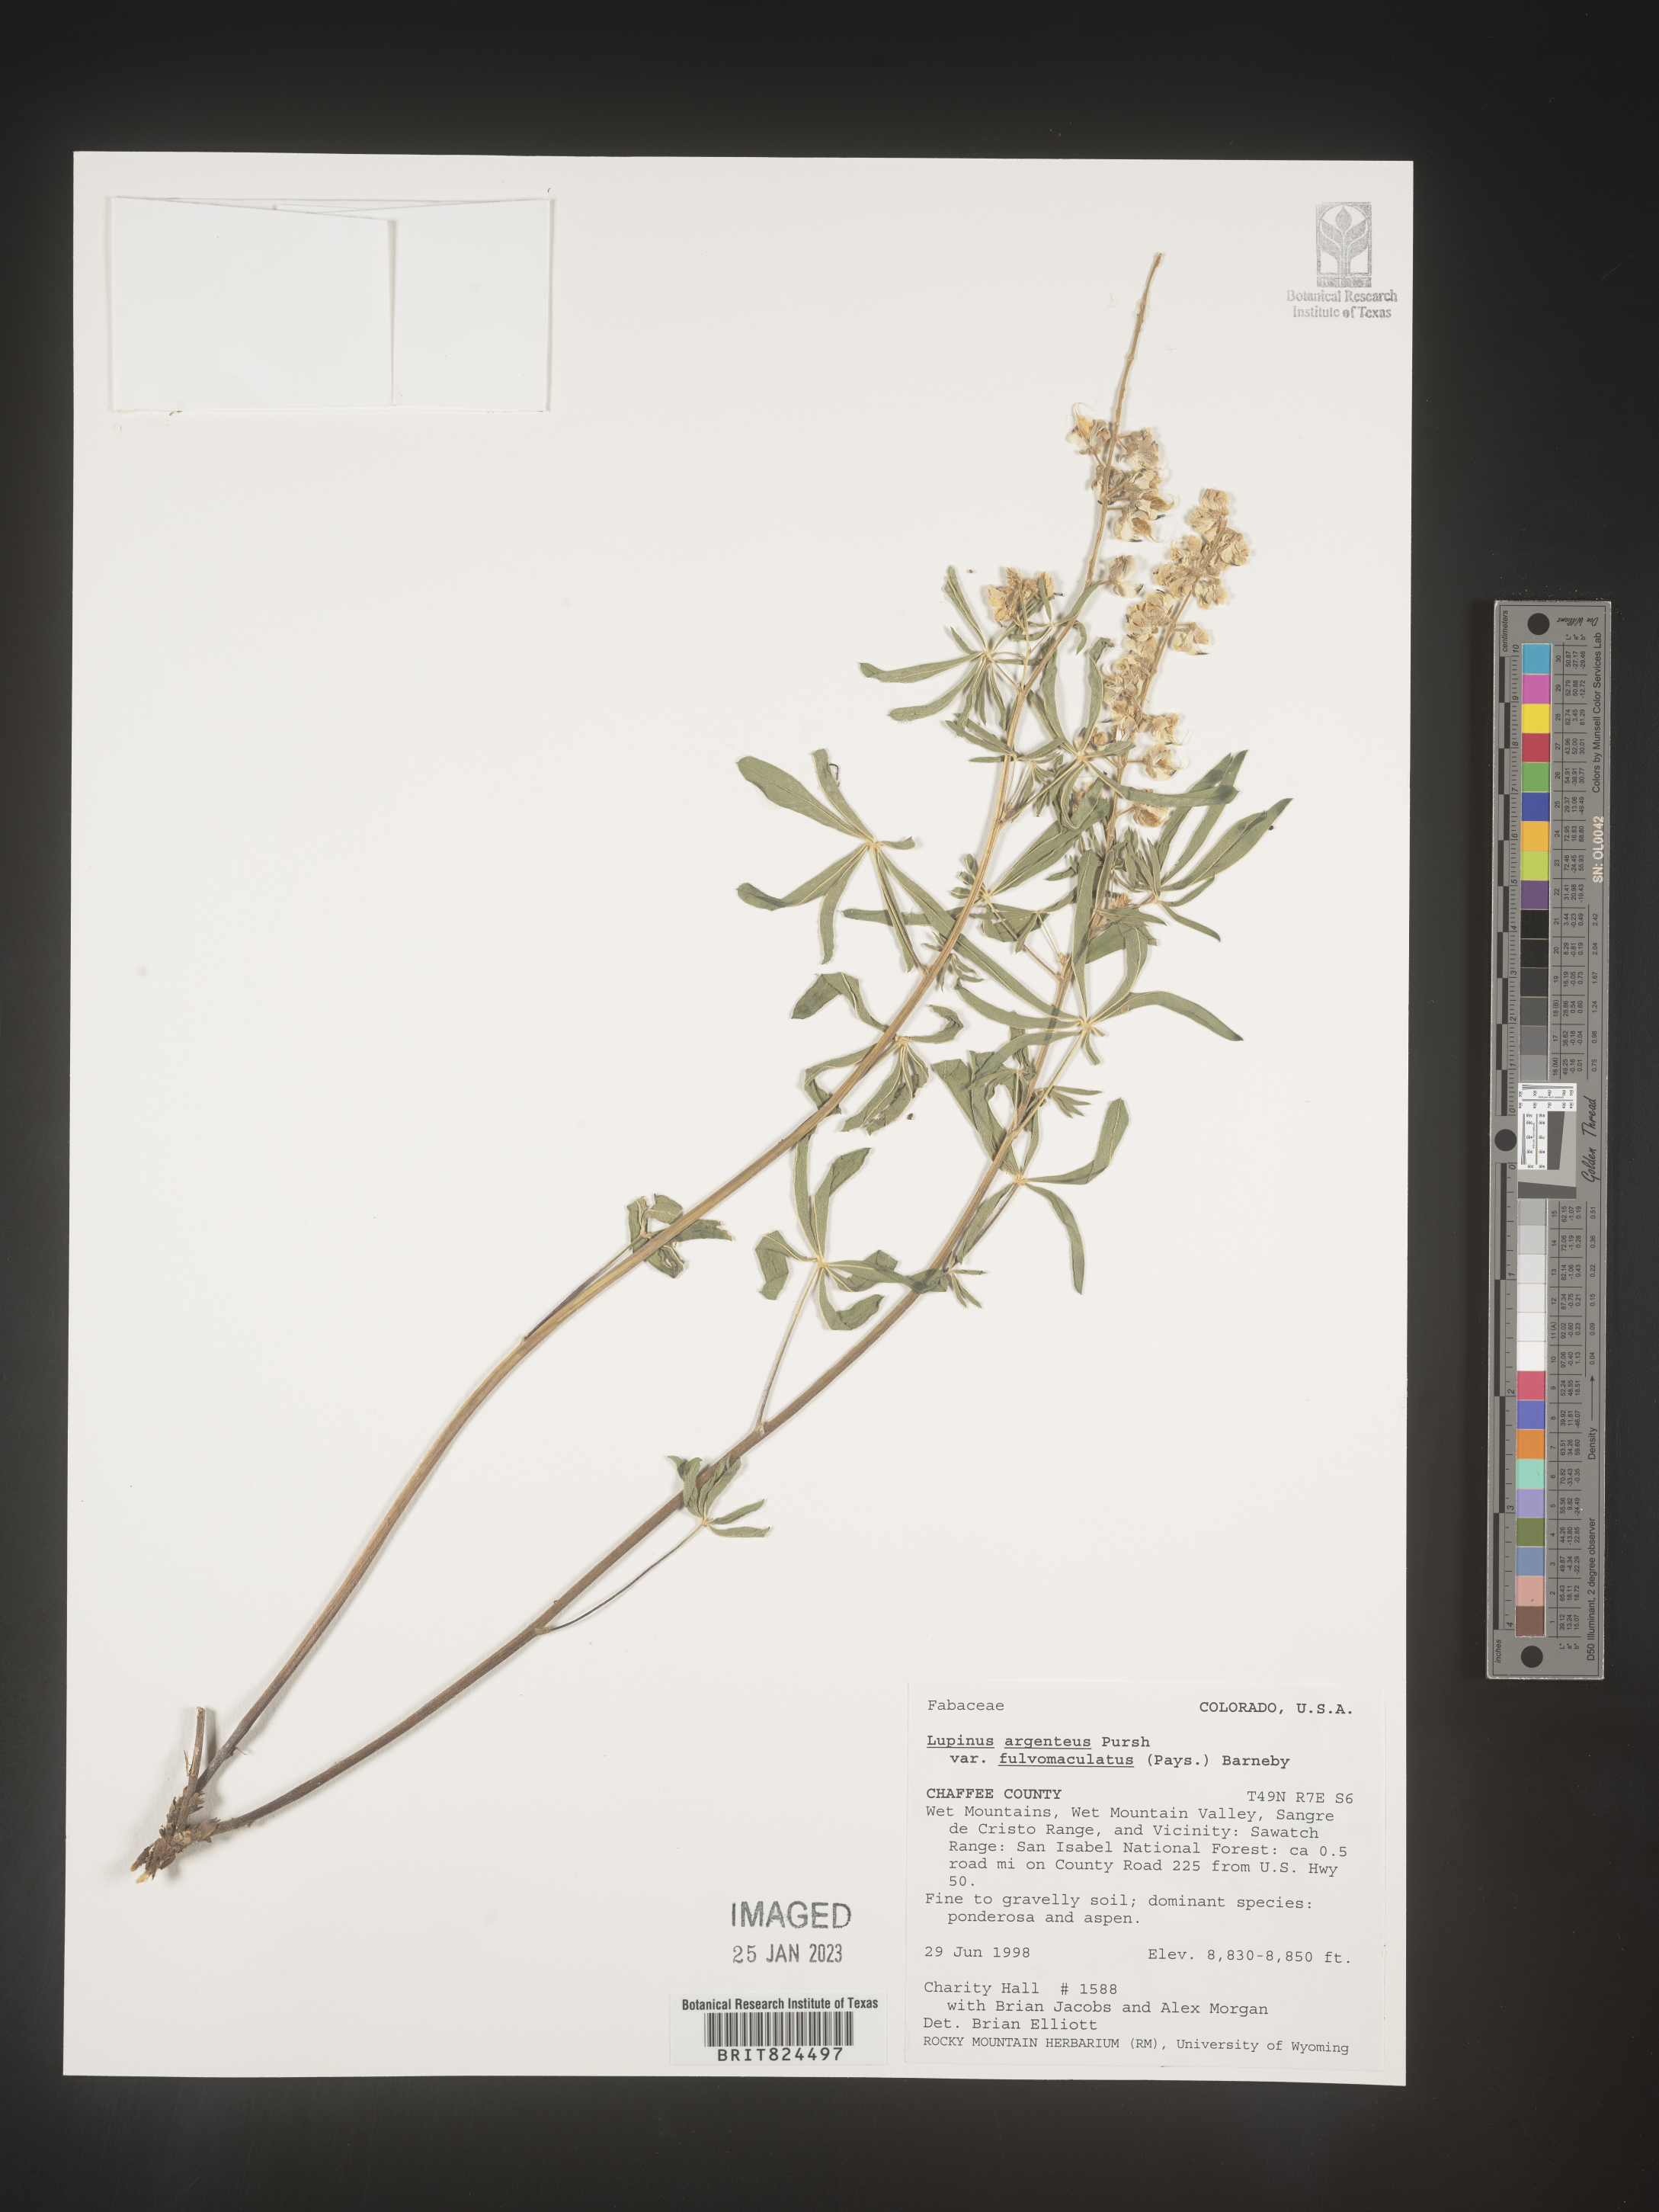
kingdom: Plantae
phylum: Tracheophyta
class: Magnoliopsida
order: Fabales
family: Fabaceae
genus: Lupinus
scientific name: Lupinus argenteus
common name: Silvery lupine
